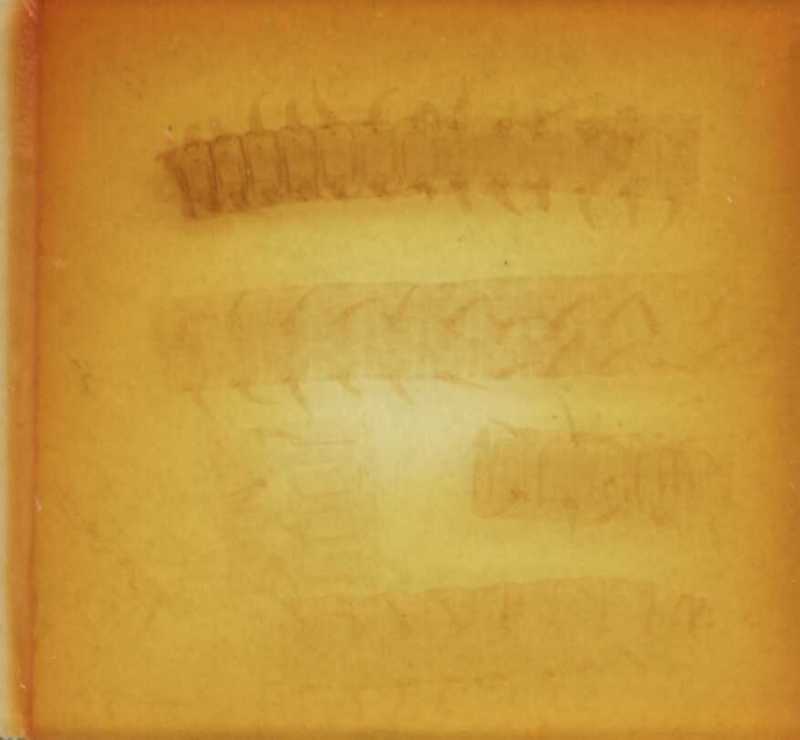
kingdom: Animalia
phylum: Arthropoda
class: Chilopoda
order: Geophilomorpha
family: Geophilidae
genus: Bithyniphilus
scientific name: Bithyniphilus bosporanus
